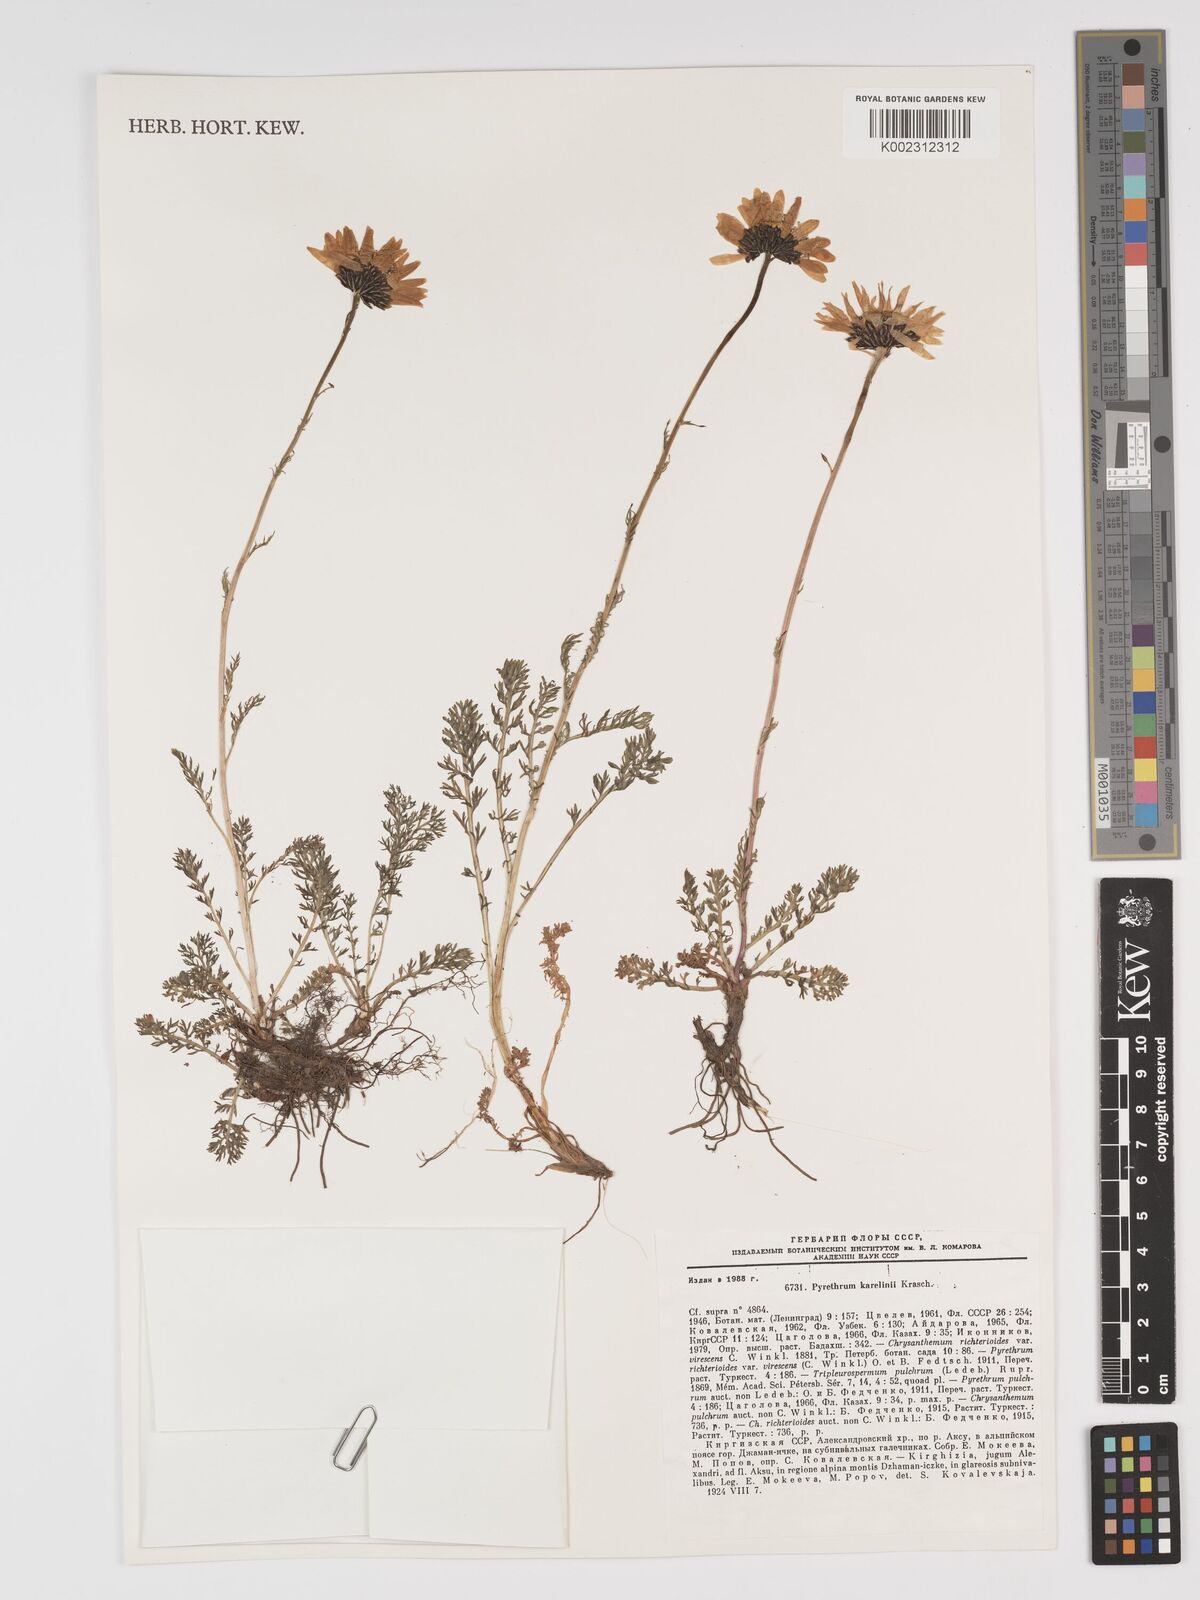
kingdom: Plantae
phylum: Tracheophyta
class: Magnoliopsida
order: Asterales
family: Asteraceae
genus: Tanacetum
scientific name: Tanacetum karelinii
